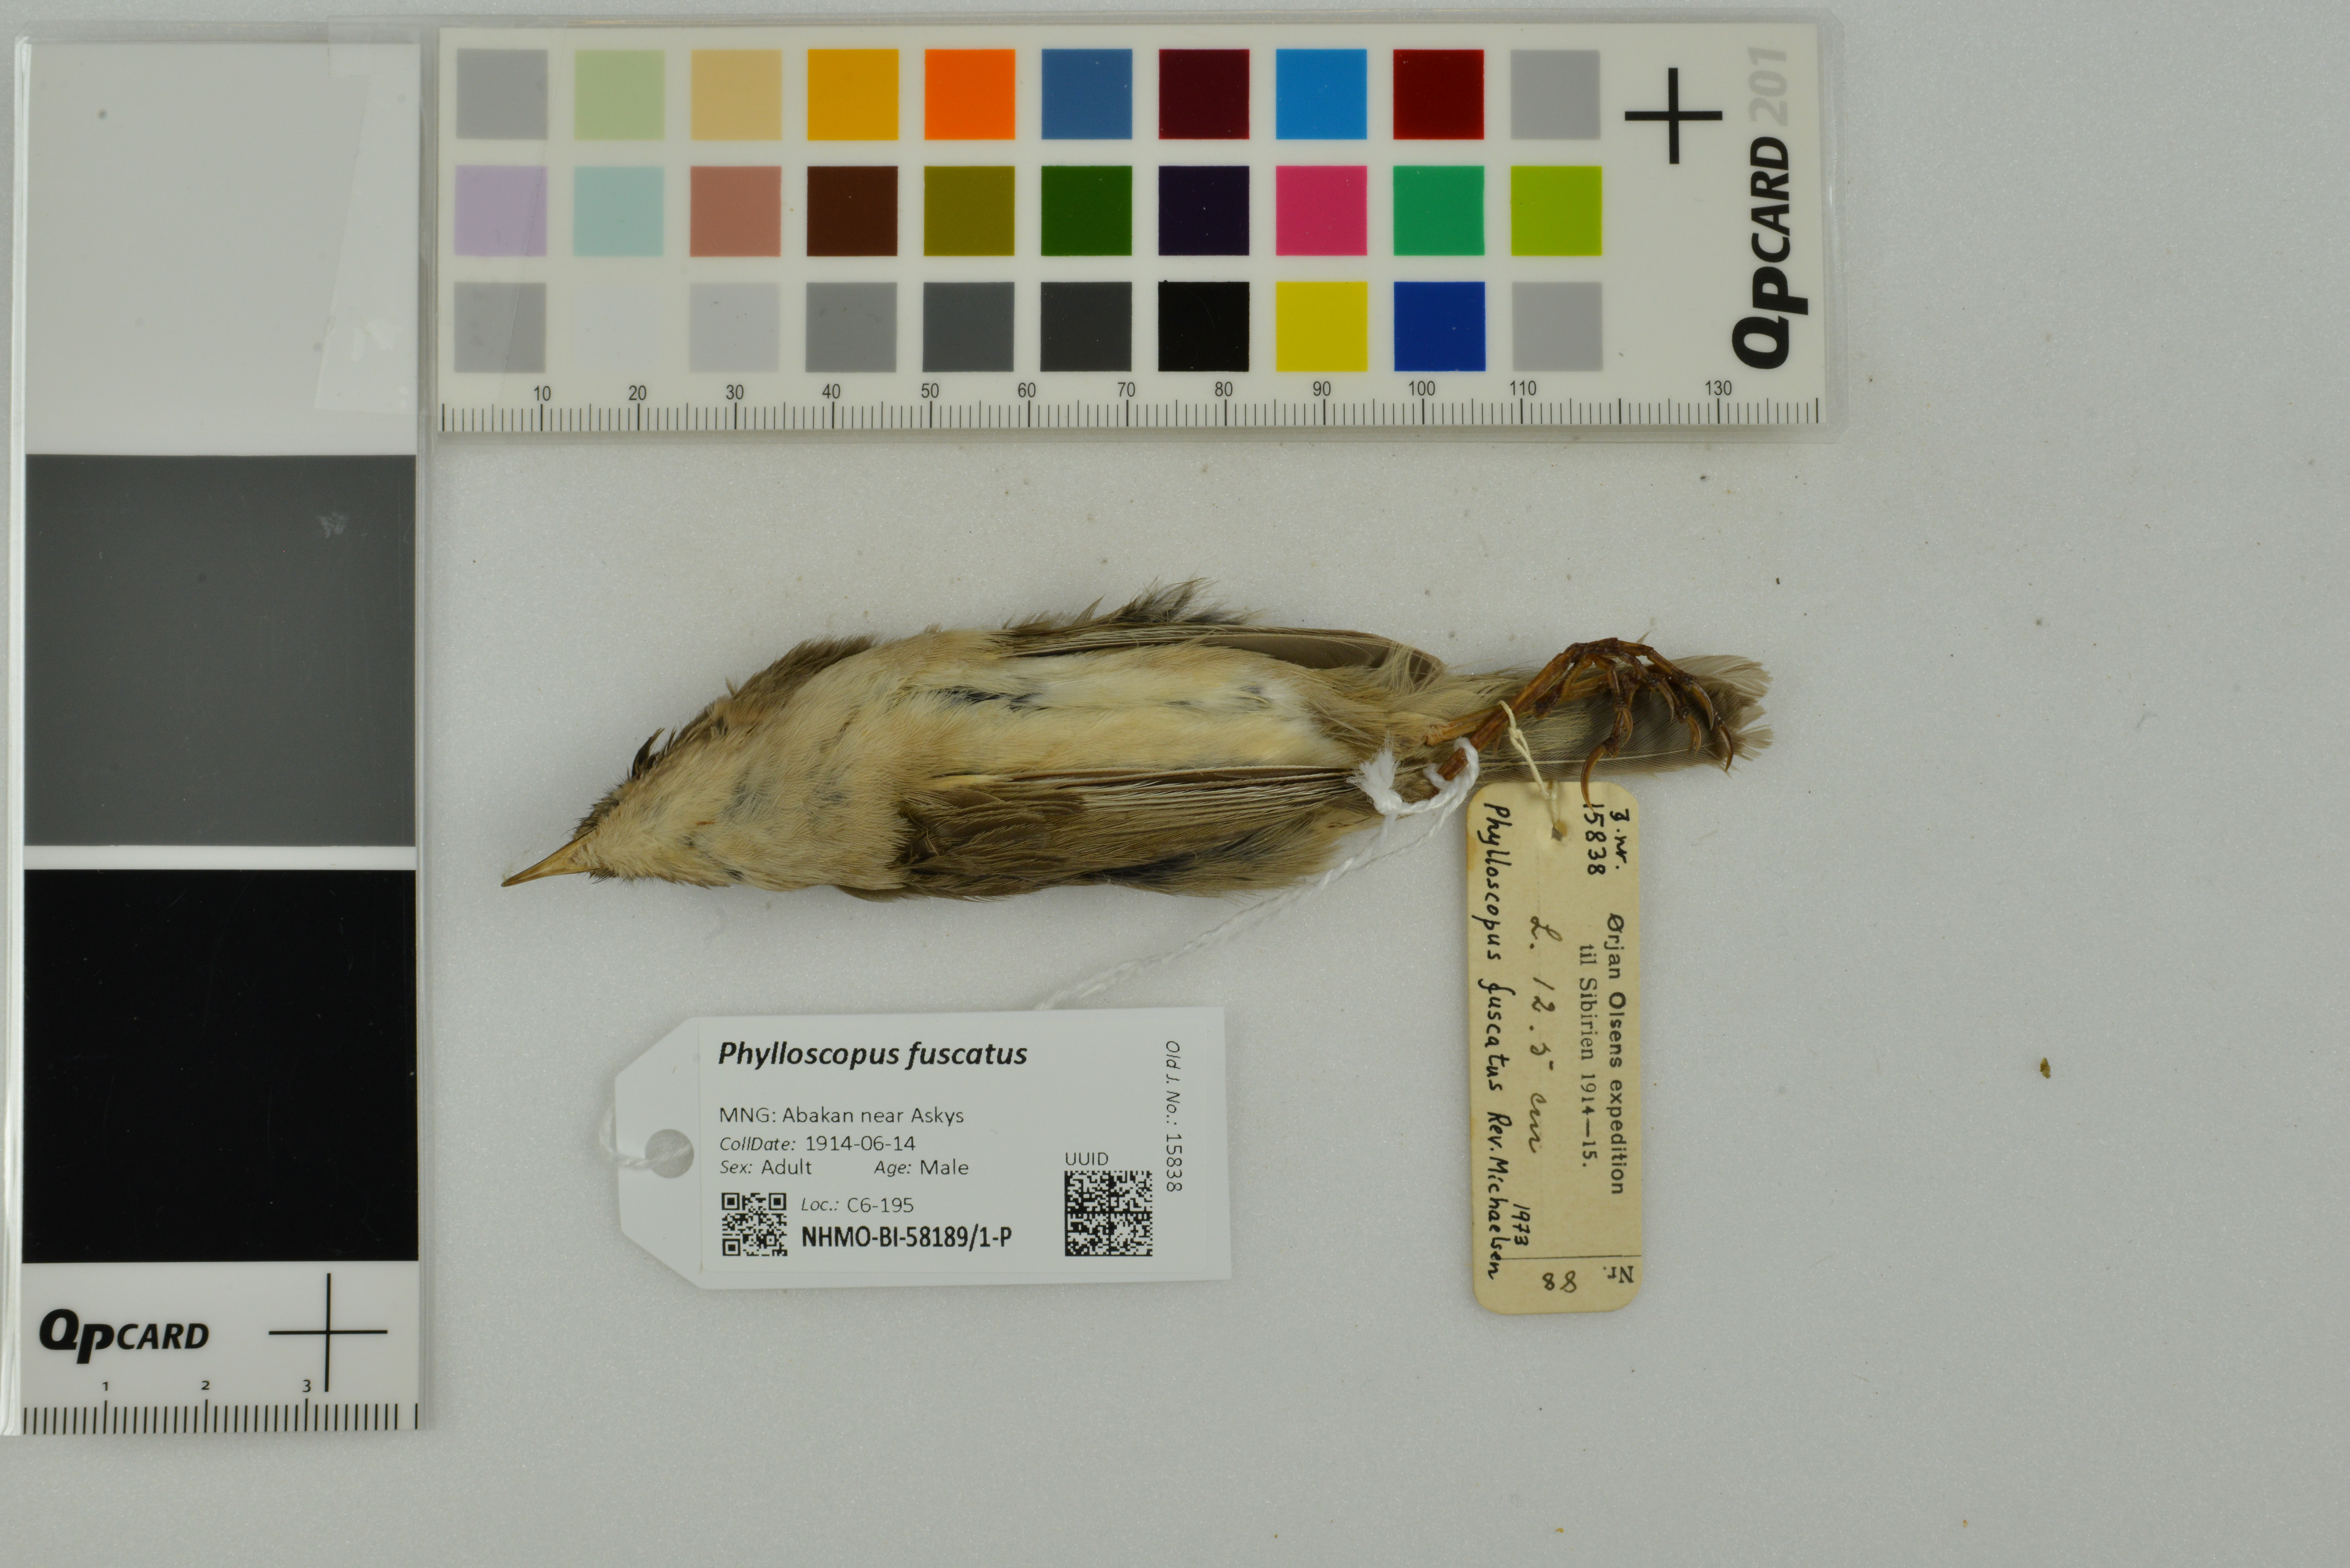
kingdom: Animalia
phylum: Chordata
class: Aves
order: Passeriformes
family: Phylloscopidae
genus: Phylloscopus
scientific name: Phylloscopus fuscatus
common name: Dusky warbler
